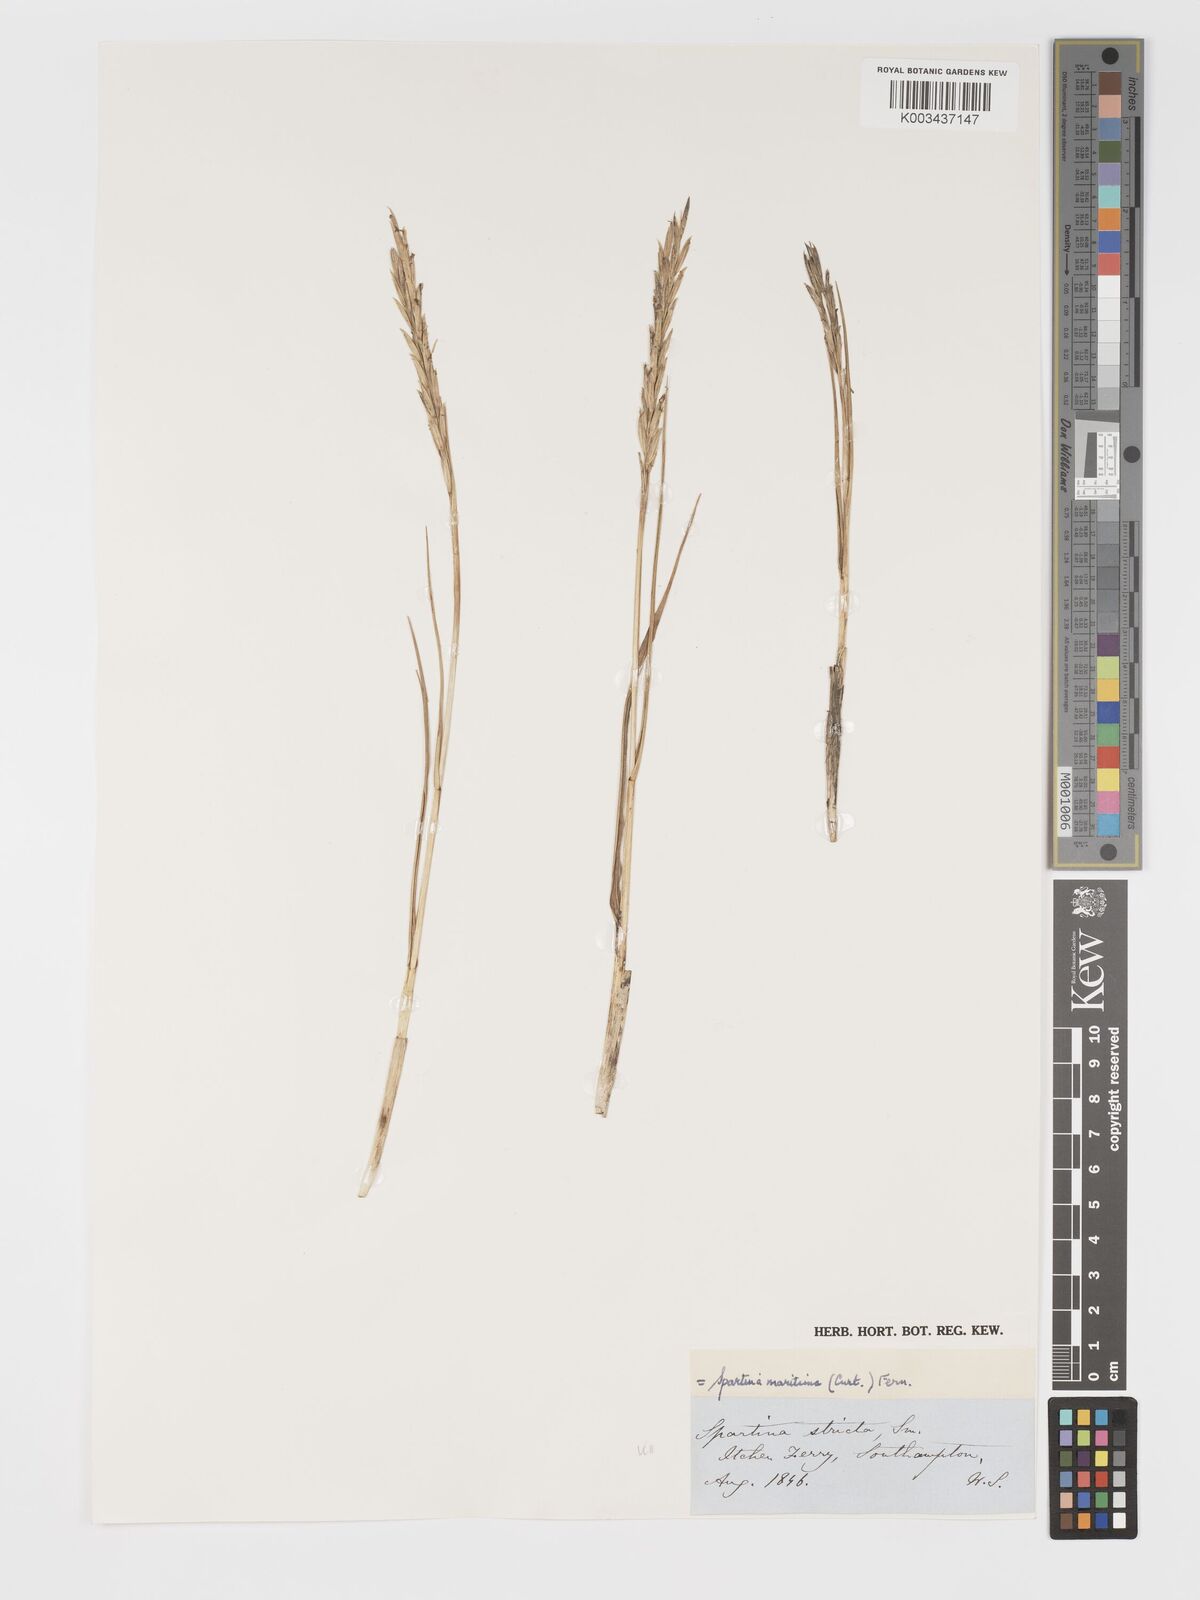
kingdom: Plantae
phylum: Tracheophyta
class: Liliopsida
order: Poales
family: Poaceae
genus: Sporobolus
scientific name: Sporobolus maritimus
